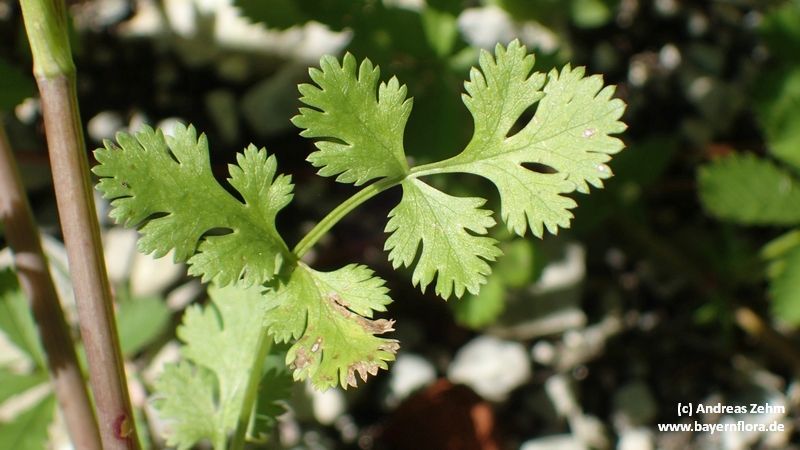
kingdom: Plantae
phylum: Tracheophyta
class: Magnoliopsida
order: Apiales
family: Apiaceae
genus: Coriandrum
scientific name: Coriandrum sativum
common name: Coriander
